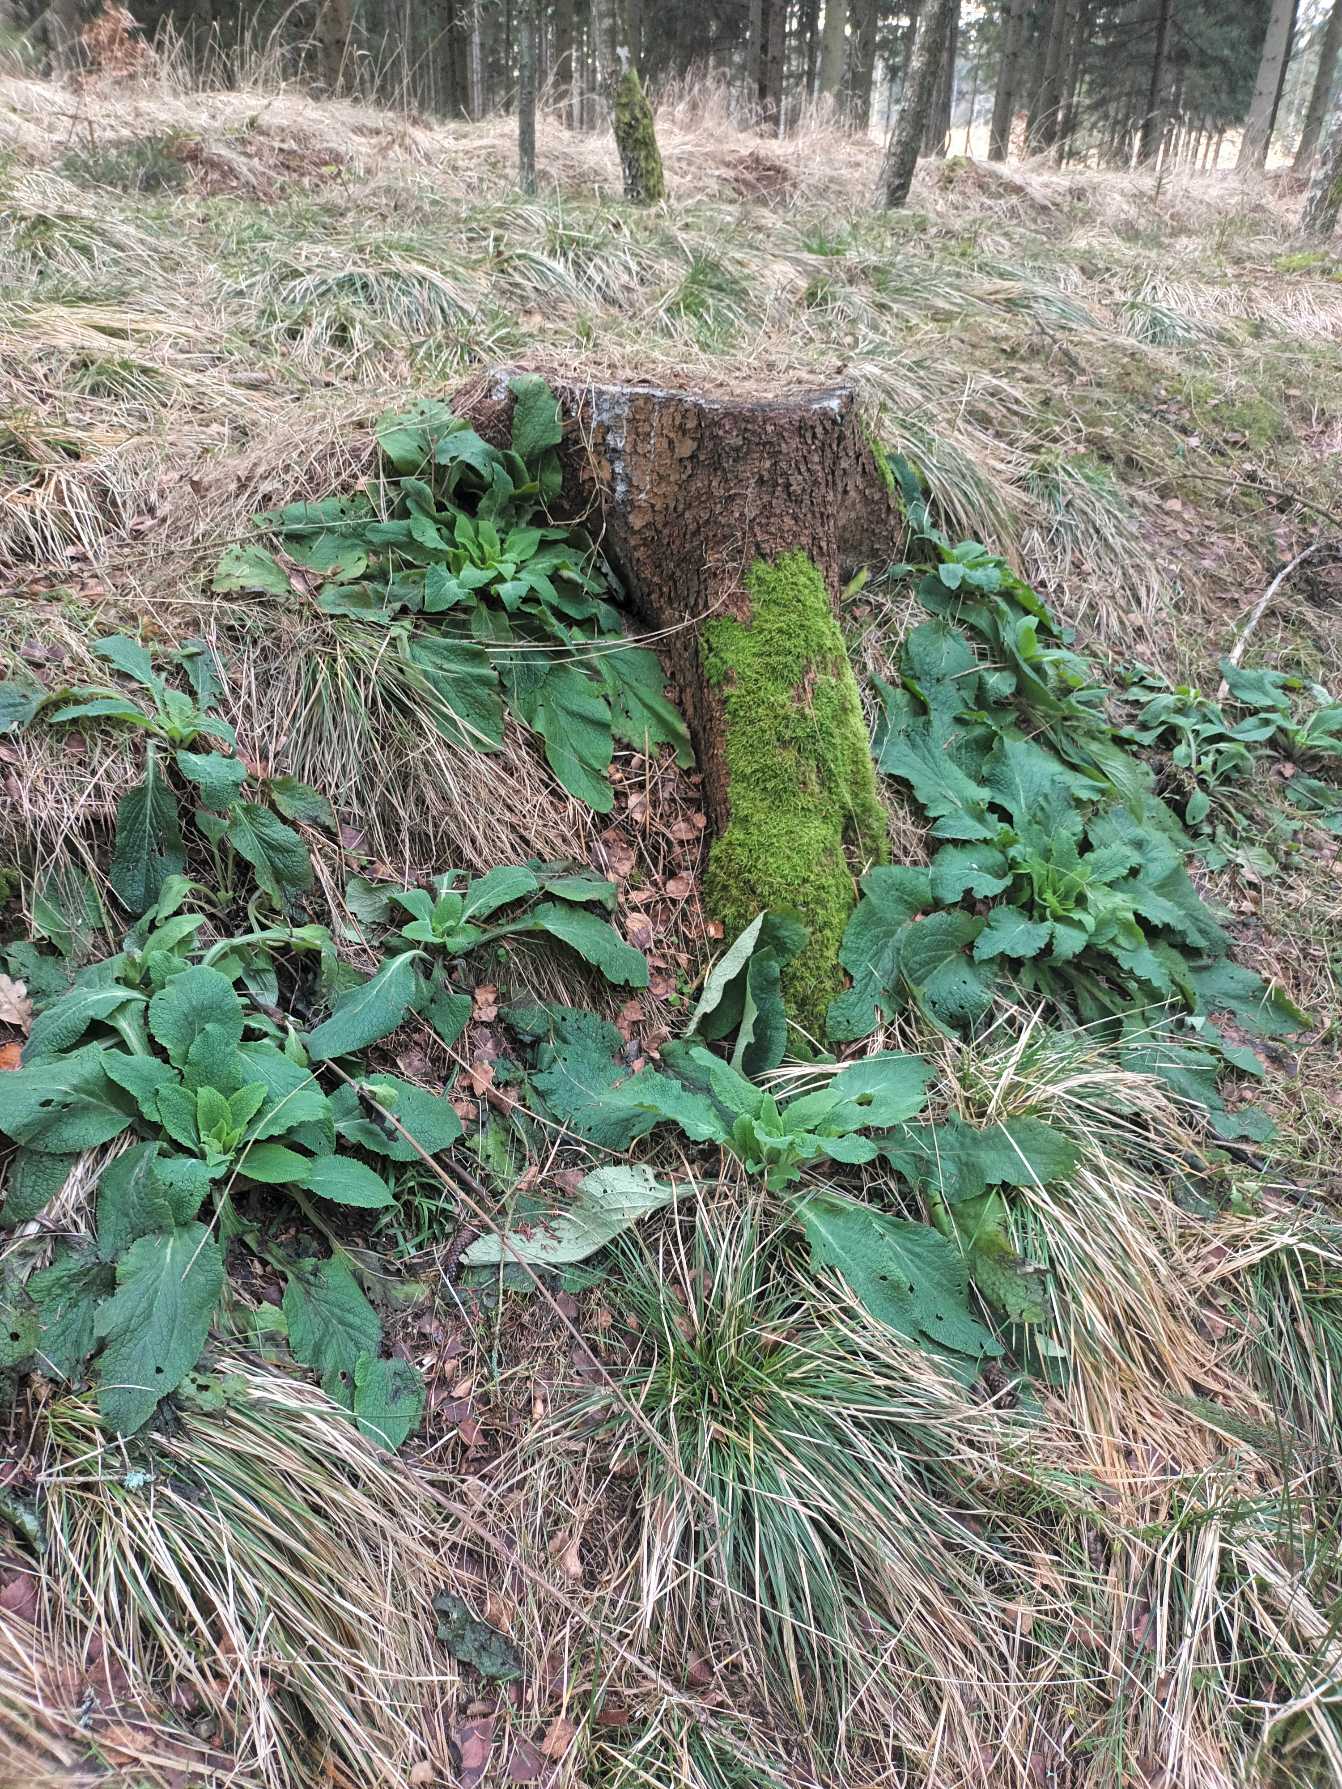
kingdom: Plantae
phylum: Tracheophyta
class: Magnoliopsida
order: Lamiales
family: Plantaginaceae
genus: Digitalis
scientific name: Digitalis purpurea
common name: Almindelig fingerbøl
